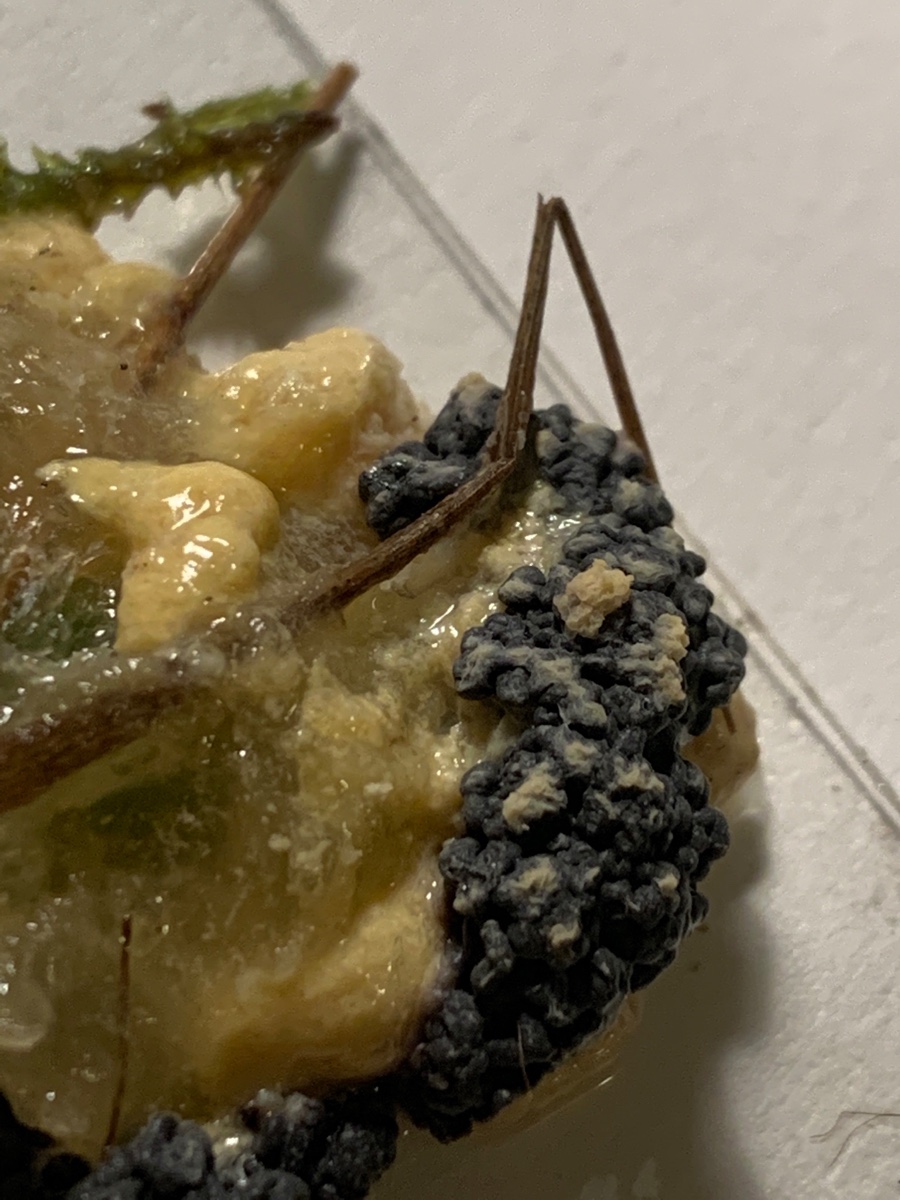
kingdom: Protozoa
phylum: Mycetozoa
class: Myxomycetes
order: Physarales
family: Physaraceae
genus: Didymium
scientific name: Didymium
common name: urteskum
